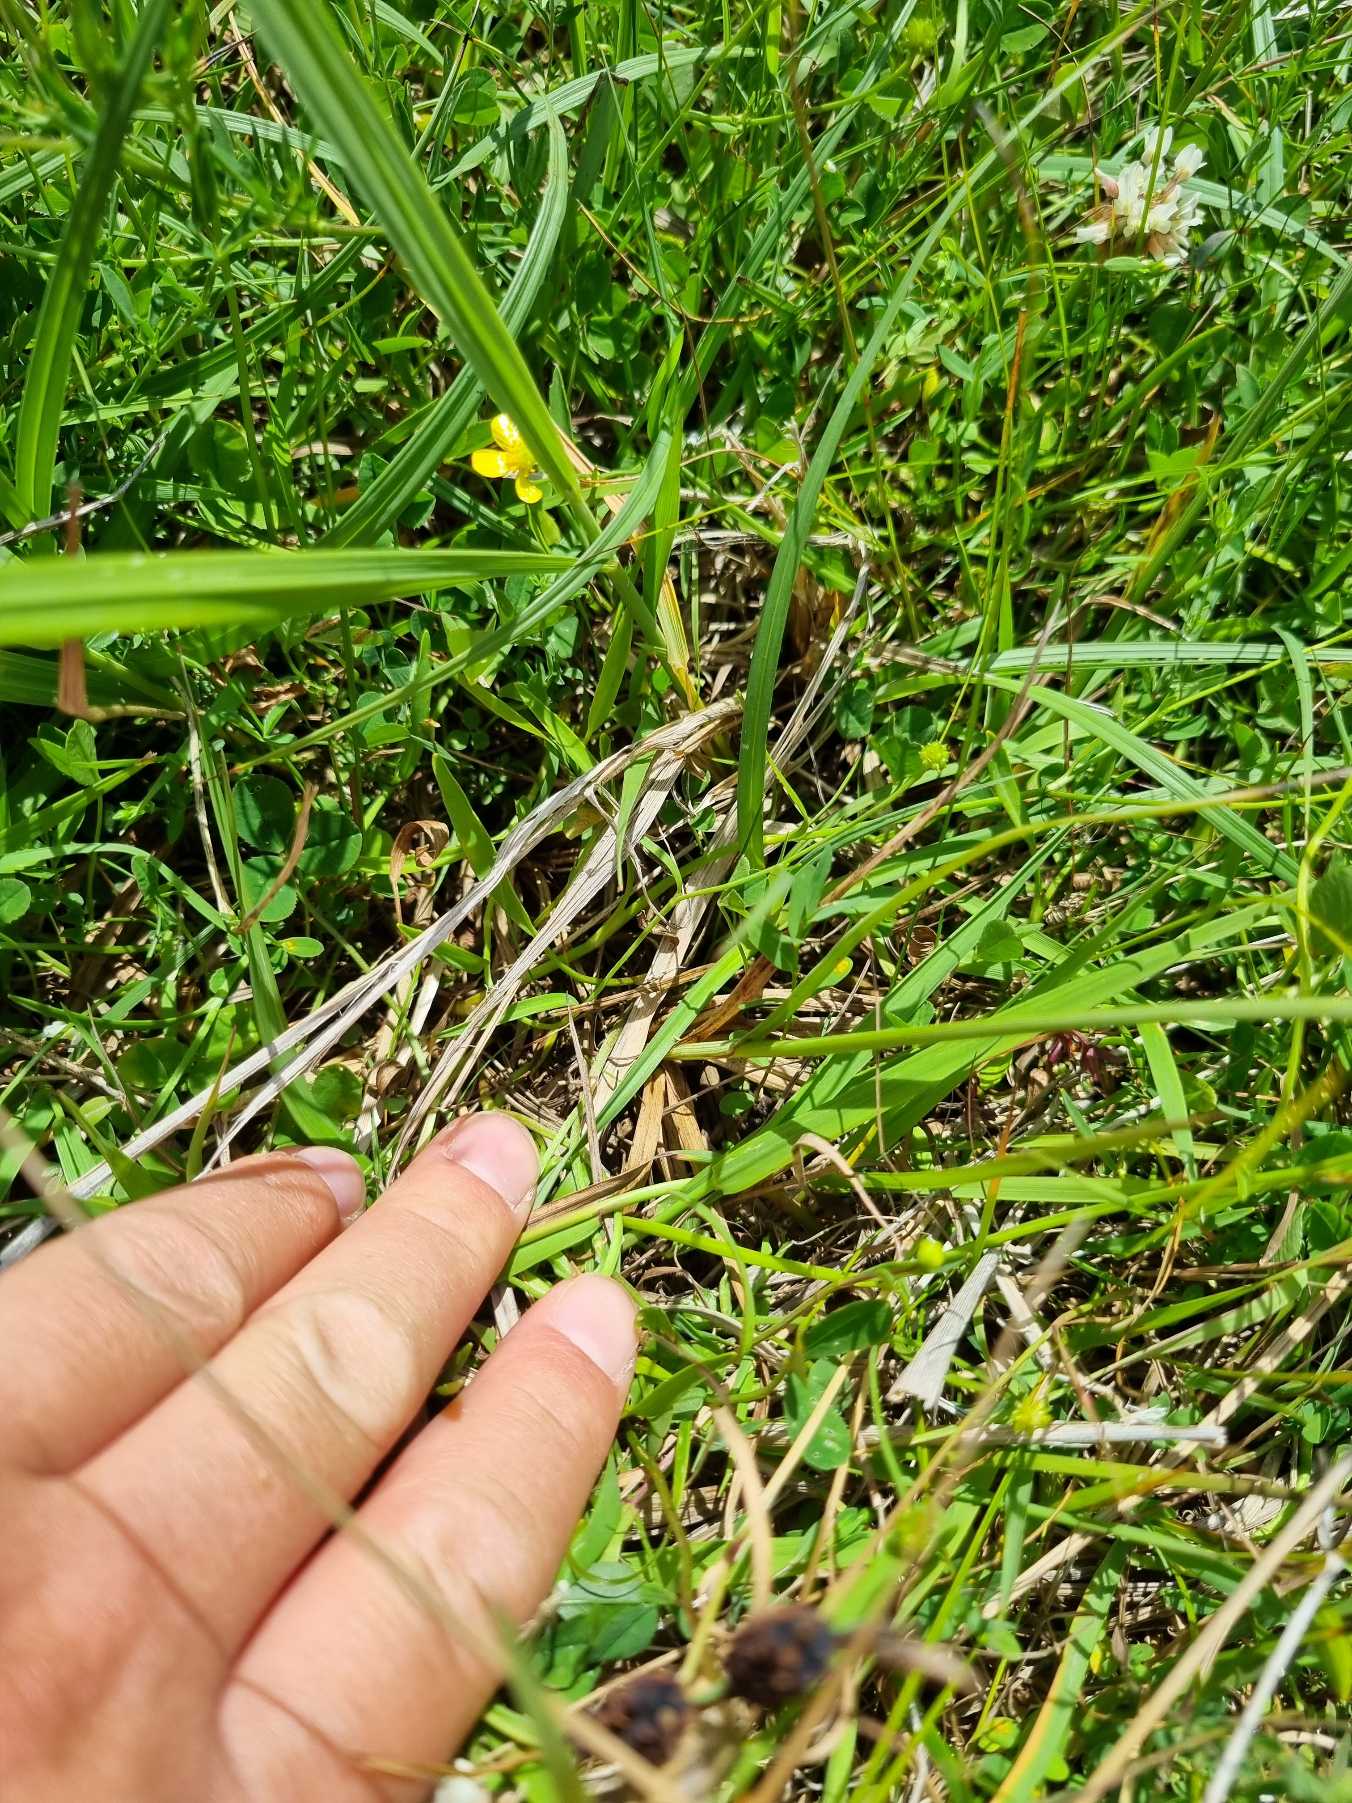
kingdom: Plantae
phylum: Tracheophyta
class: Liliopsida
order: Poales
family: Cyperaceae
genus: Carex
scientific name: Carex flacca
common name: Blågrøn star
